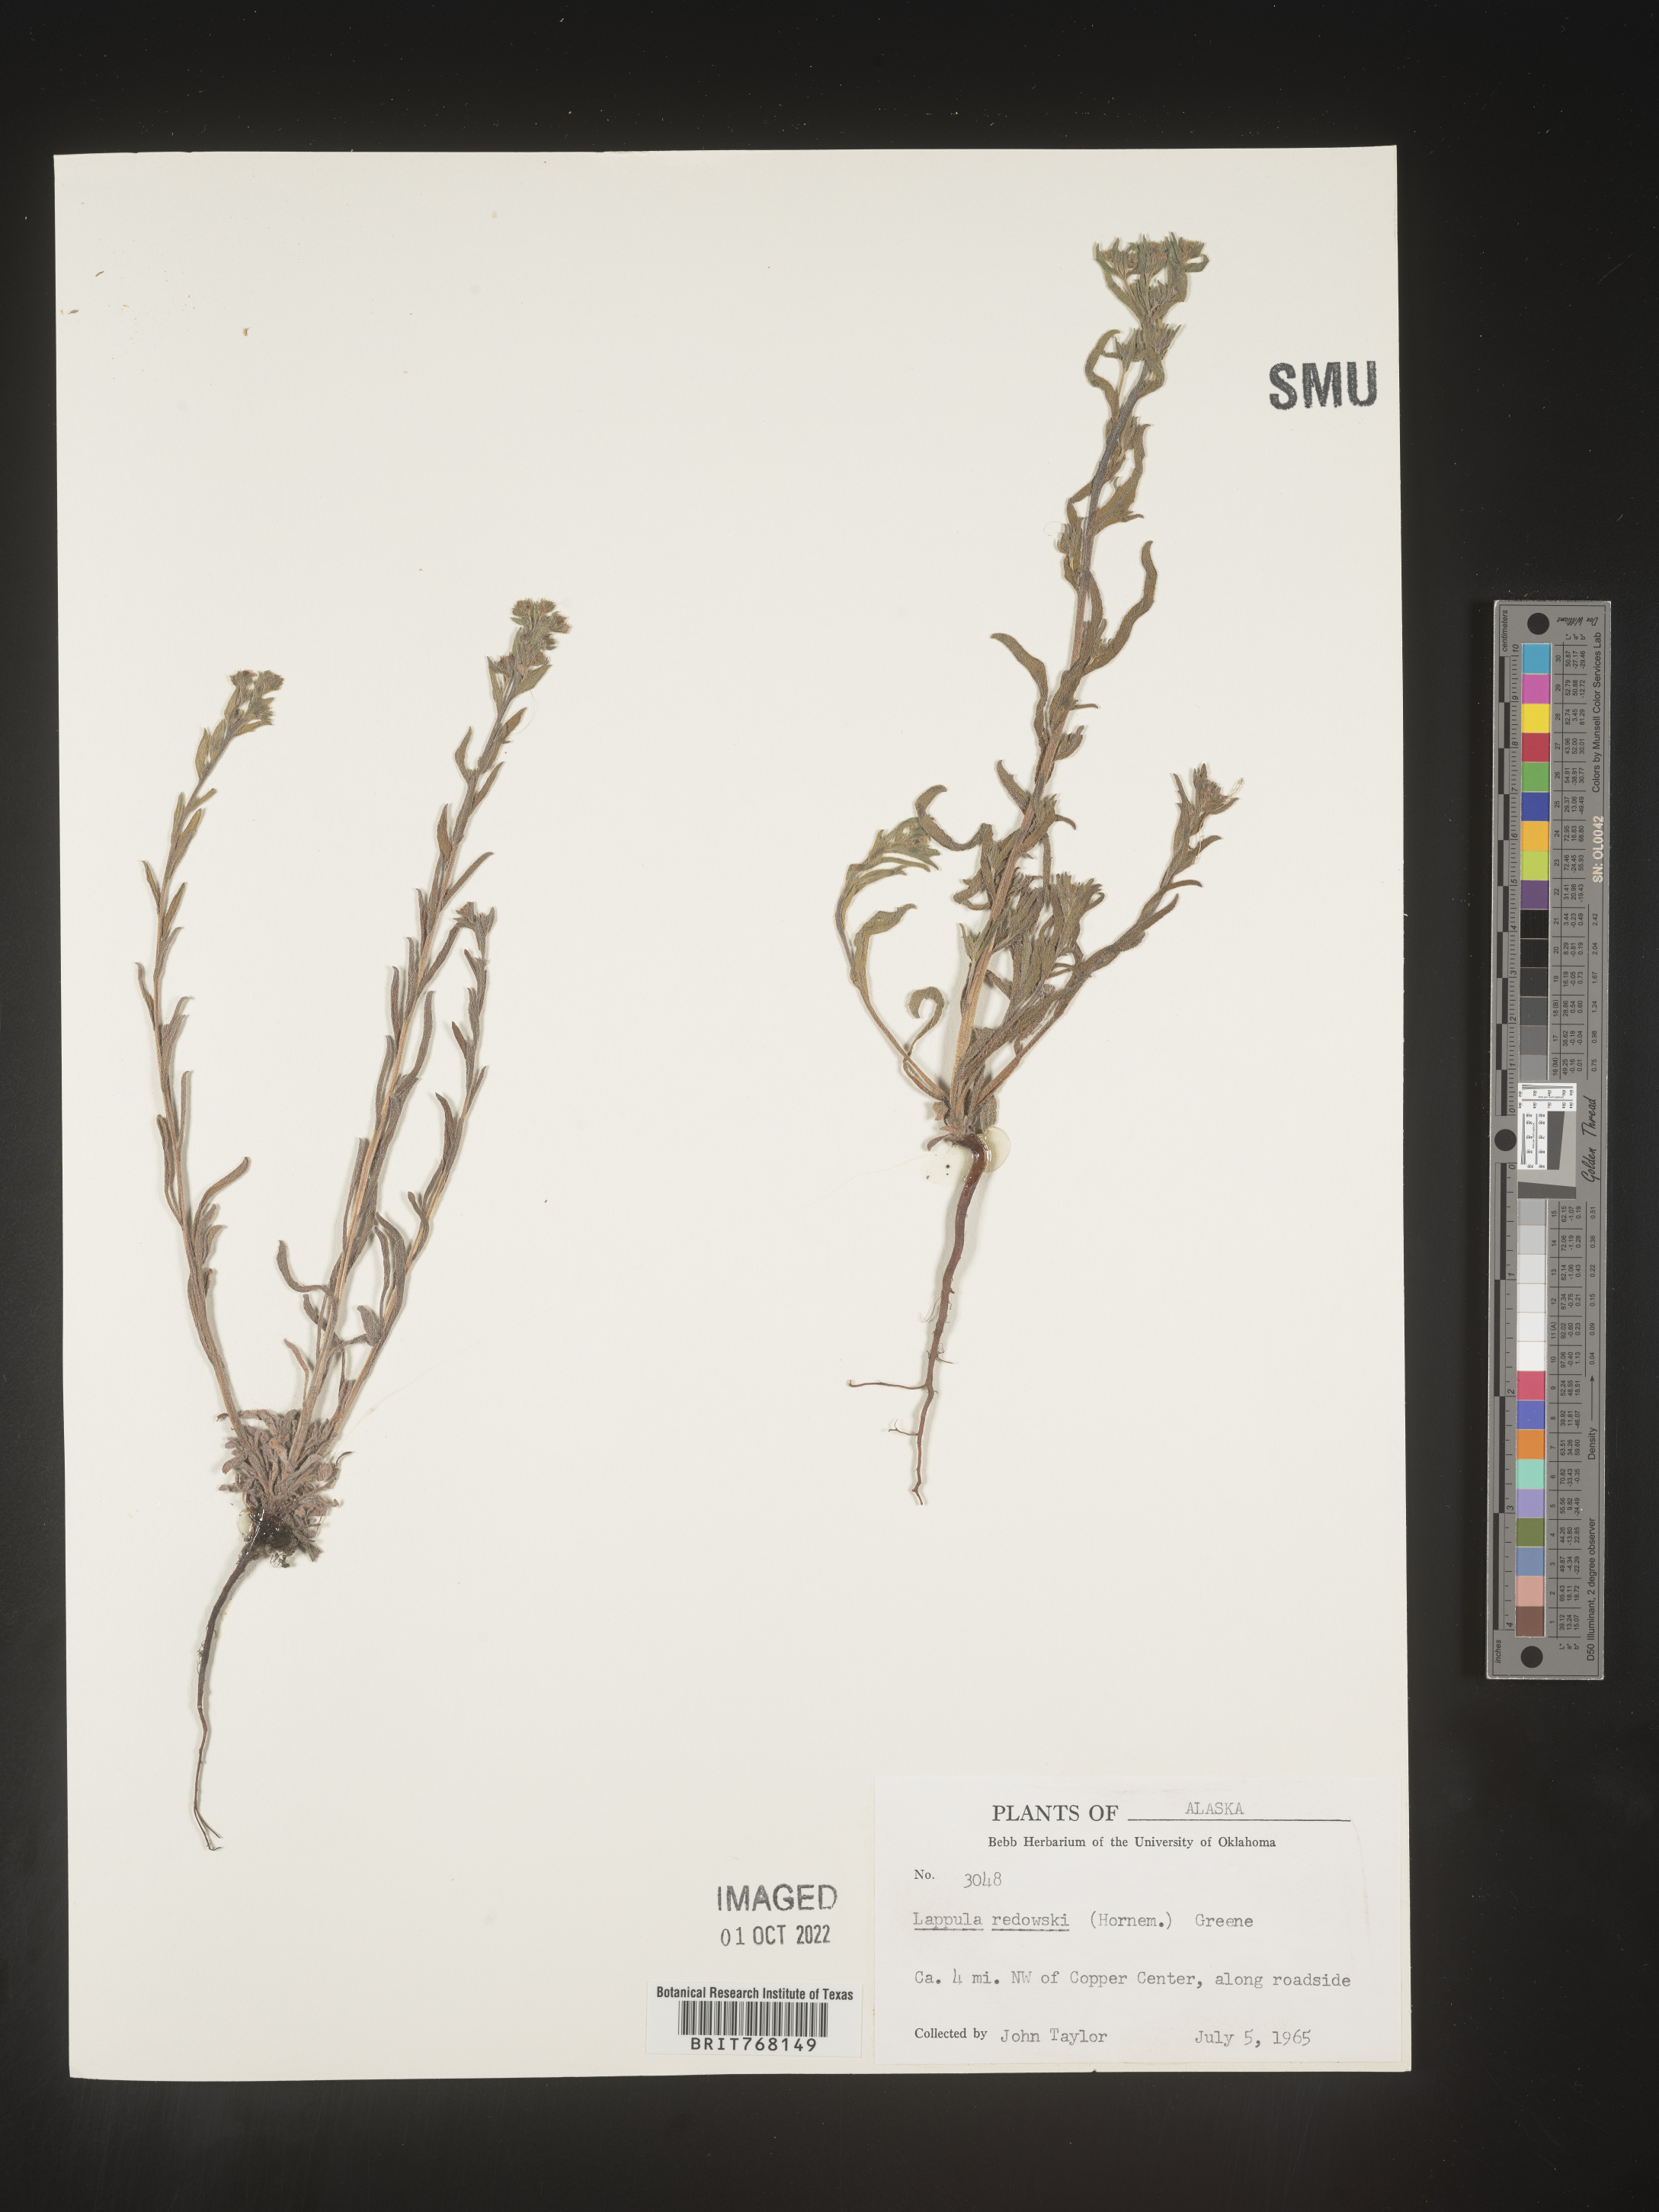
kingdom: Plantae
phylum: Tracheophyta
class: Magnoliopsida
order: Boraginales
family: Boraginaceae
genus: Lappula
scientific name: Lappula redowskii
